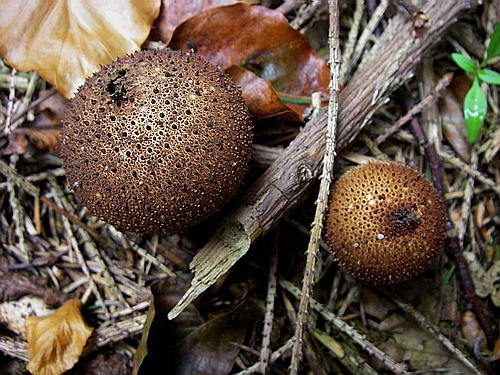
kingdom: Fungi
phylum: Basidiomycota
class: Agaricomycetes
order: Agaricales
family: Lycoperdaceae
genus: Lycoperdon
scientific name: Lycoperdon nigrescens
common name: sortagtig støvbold
